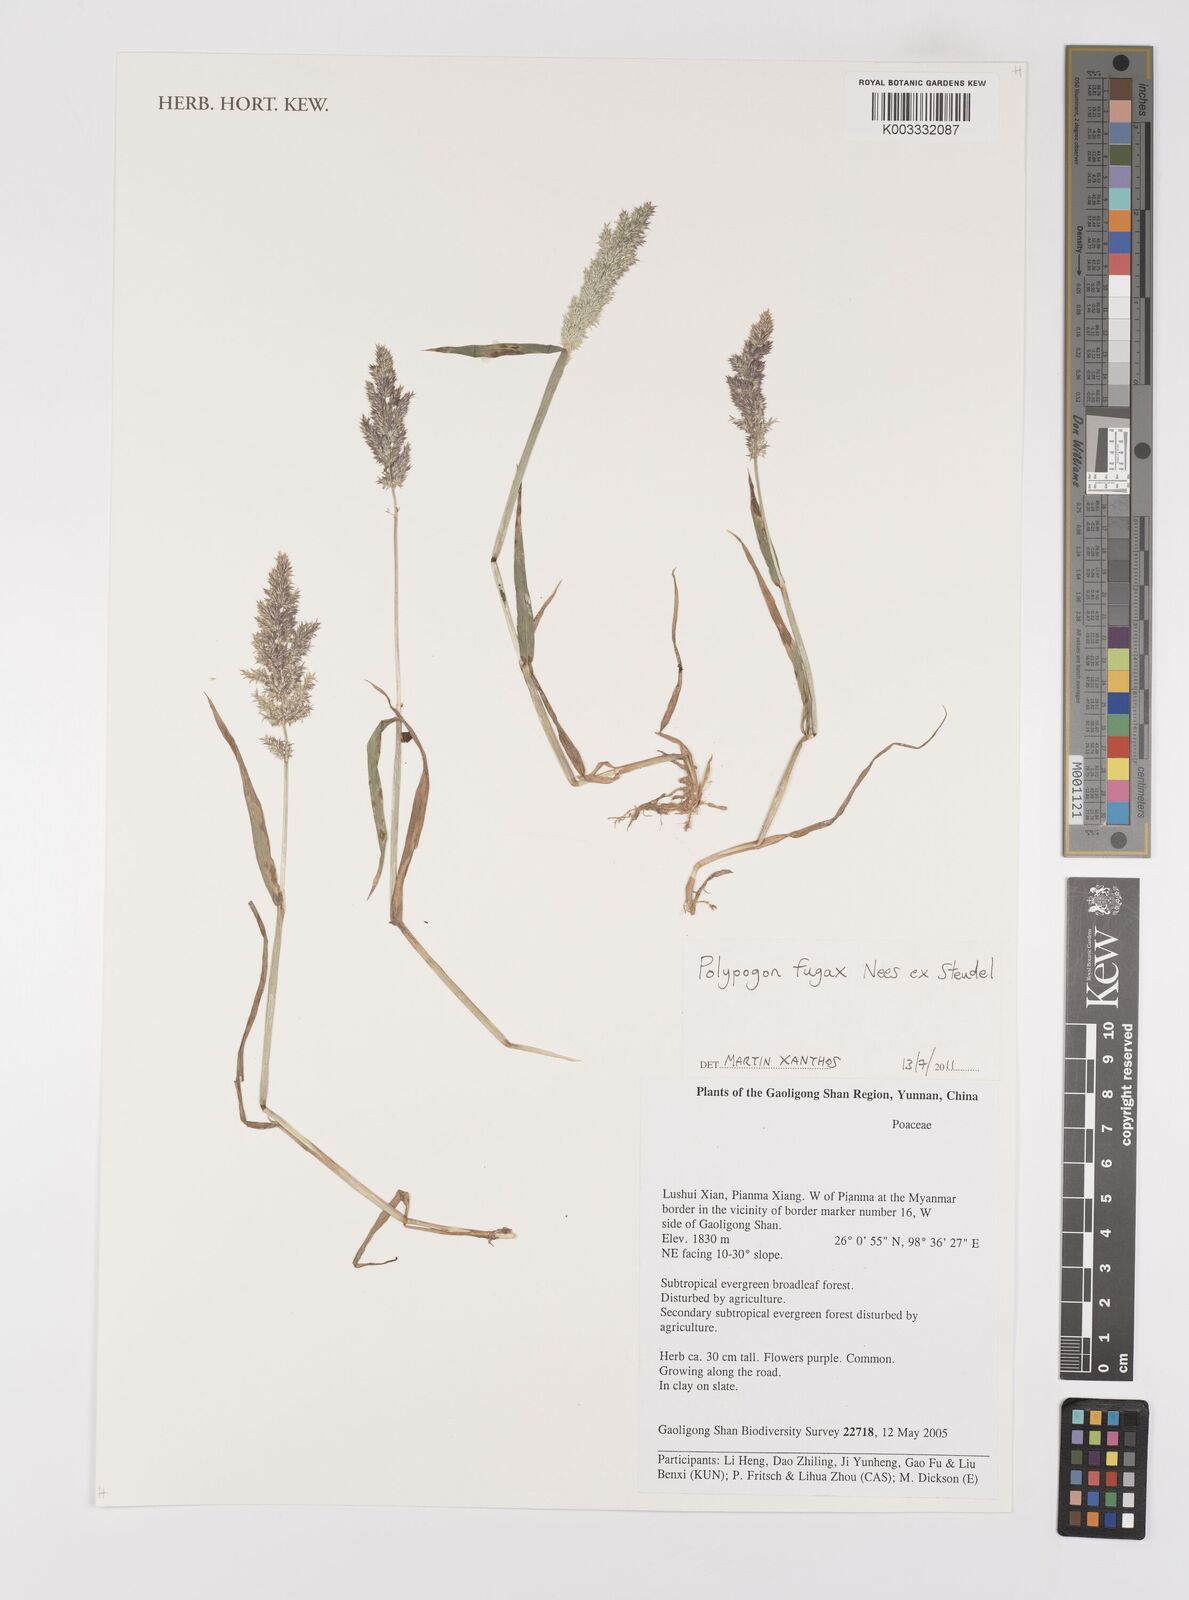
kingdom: Plantae
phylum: Tracheophyta
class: Liliopsida
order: Poales
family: Poaceae
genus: Polypogon
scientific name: Polypogon fugax
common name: Asia minor bluegrass
